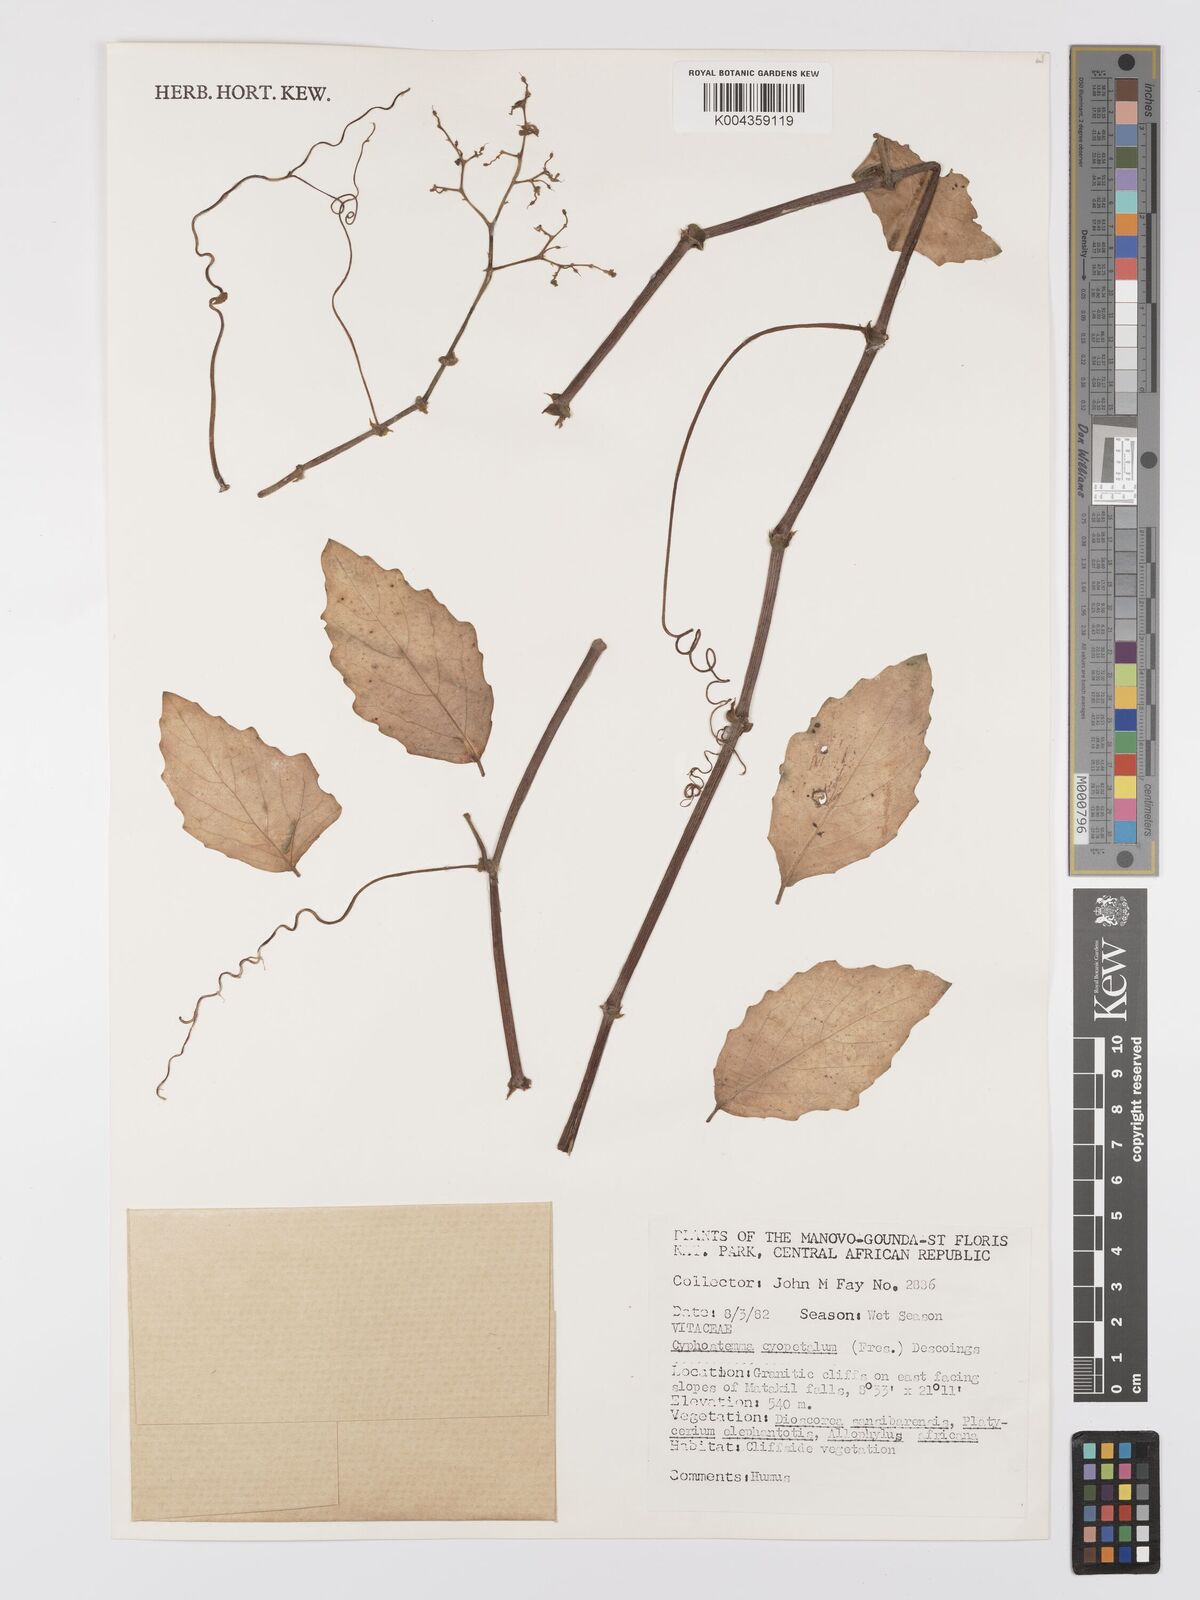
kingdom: Plantae
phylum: Tracheophyta
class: Magnoliopsida
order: Vitales
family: Vitaceae
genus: Cyphostemma
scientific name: Cyphostemma cyphopetalum
